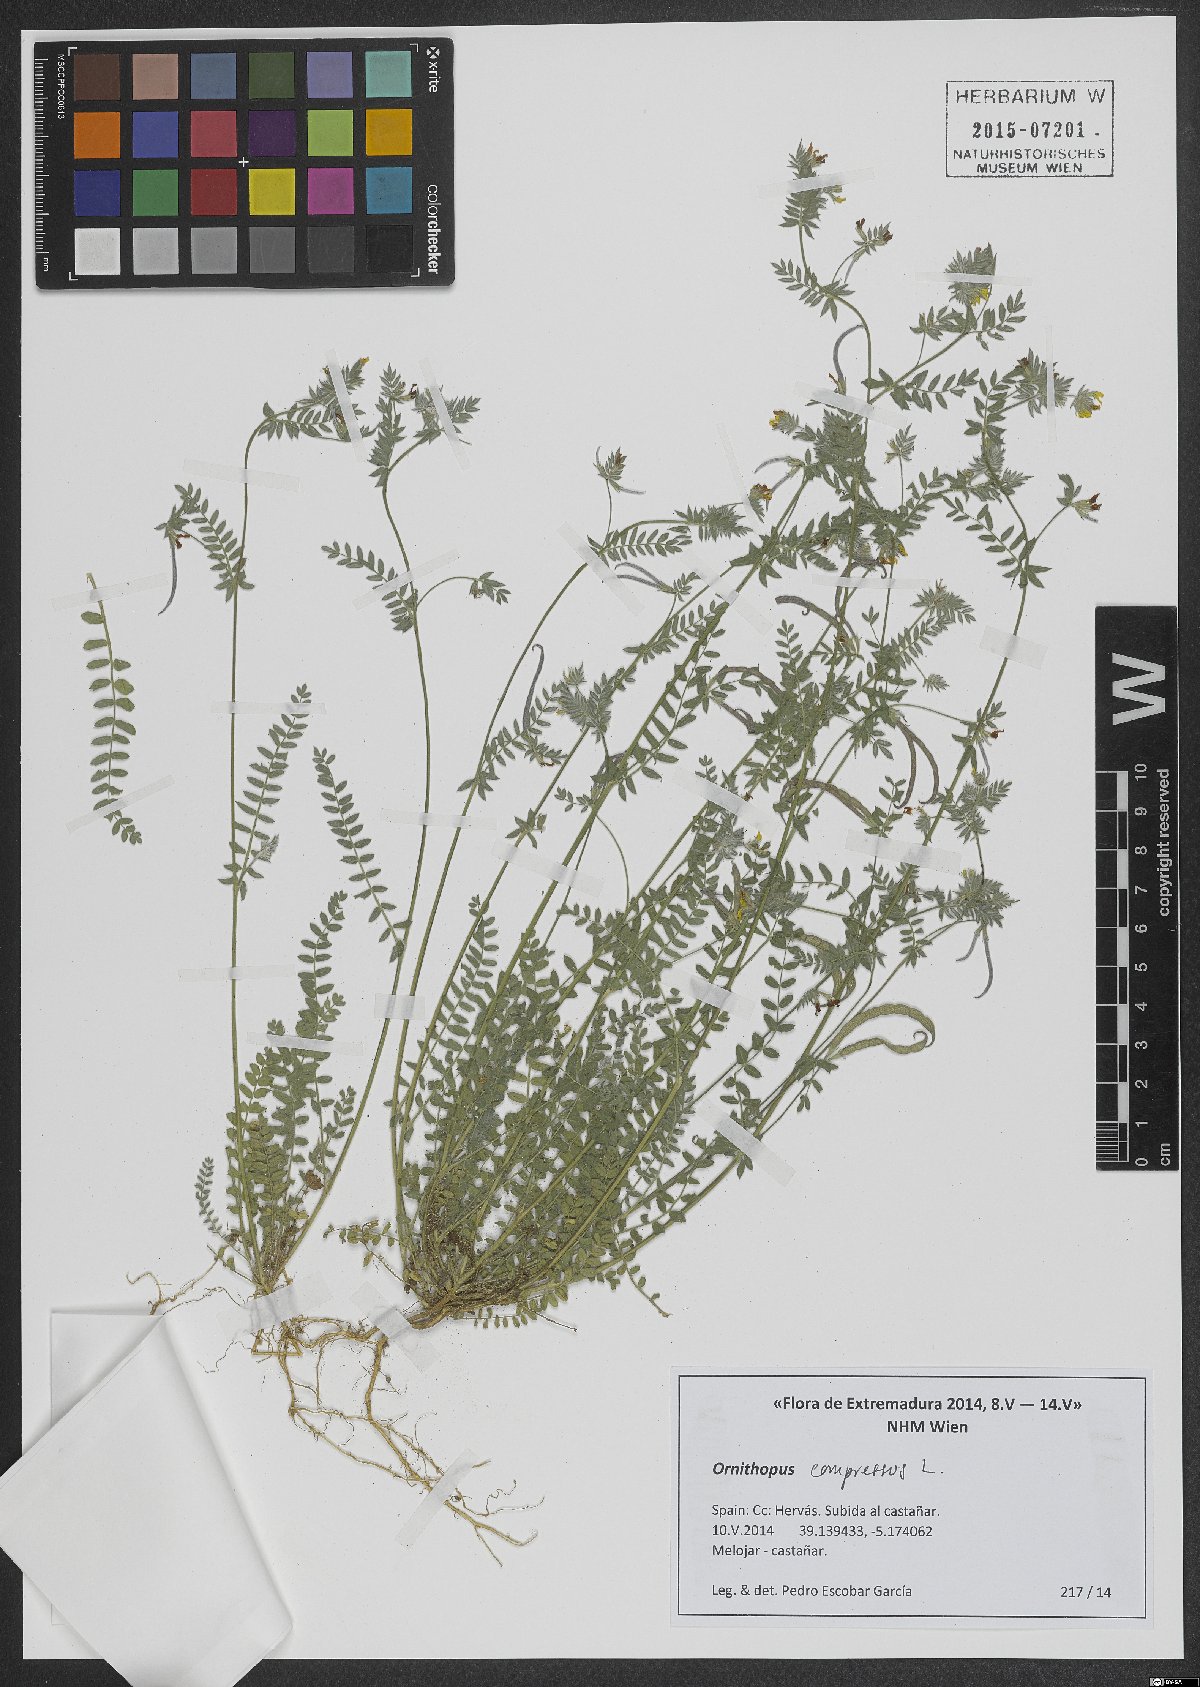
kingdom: Plantae
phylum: Tracheophyta
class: Magnoliopsida
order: Fabales
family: Fabaceae
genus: Ornithopus
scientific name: Ornithopus compressus
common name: Yellow serradella
